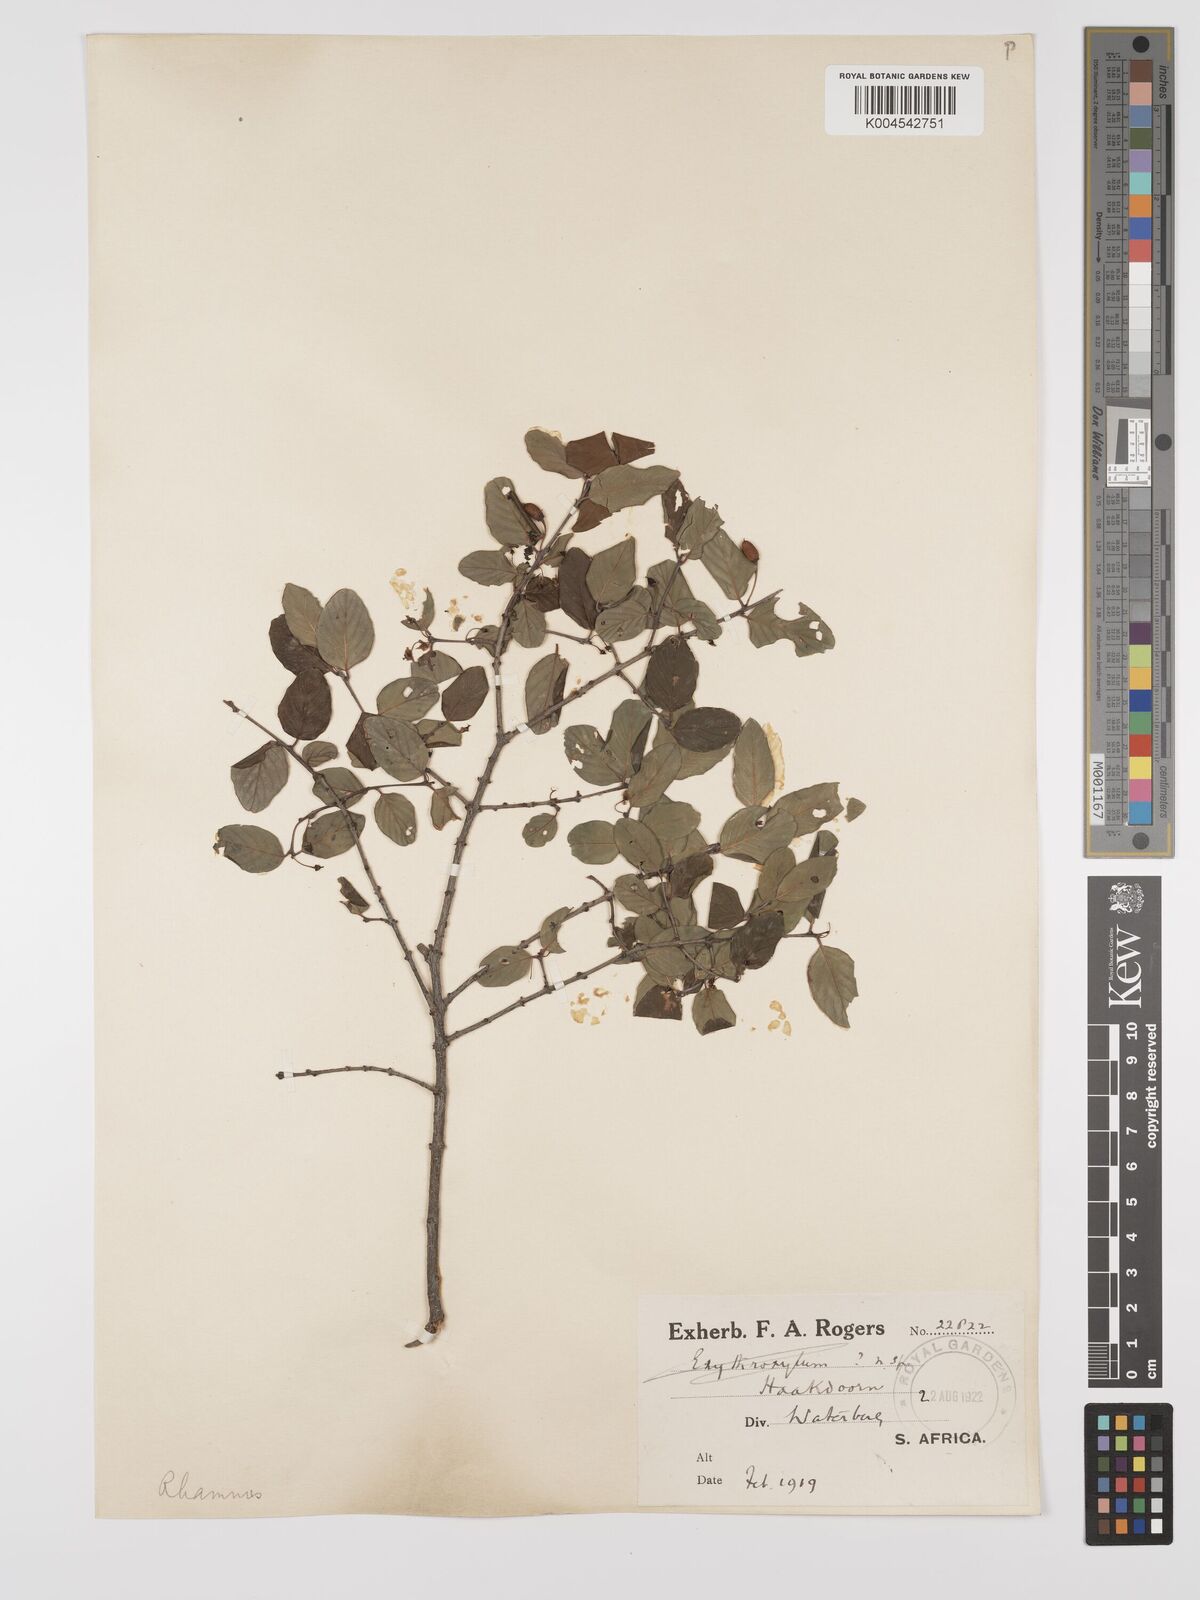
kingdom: Plantae
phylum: Tracheophyta
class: Magnoliopsida
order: Rosales
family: Rhamnaceae
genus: Phyllogeiton
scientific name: Phyllogeiton zeyheri
